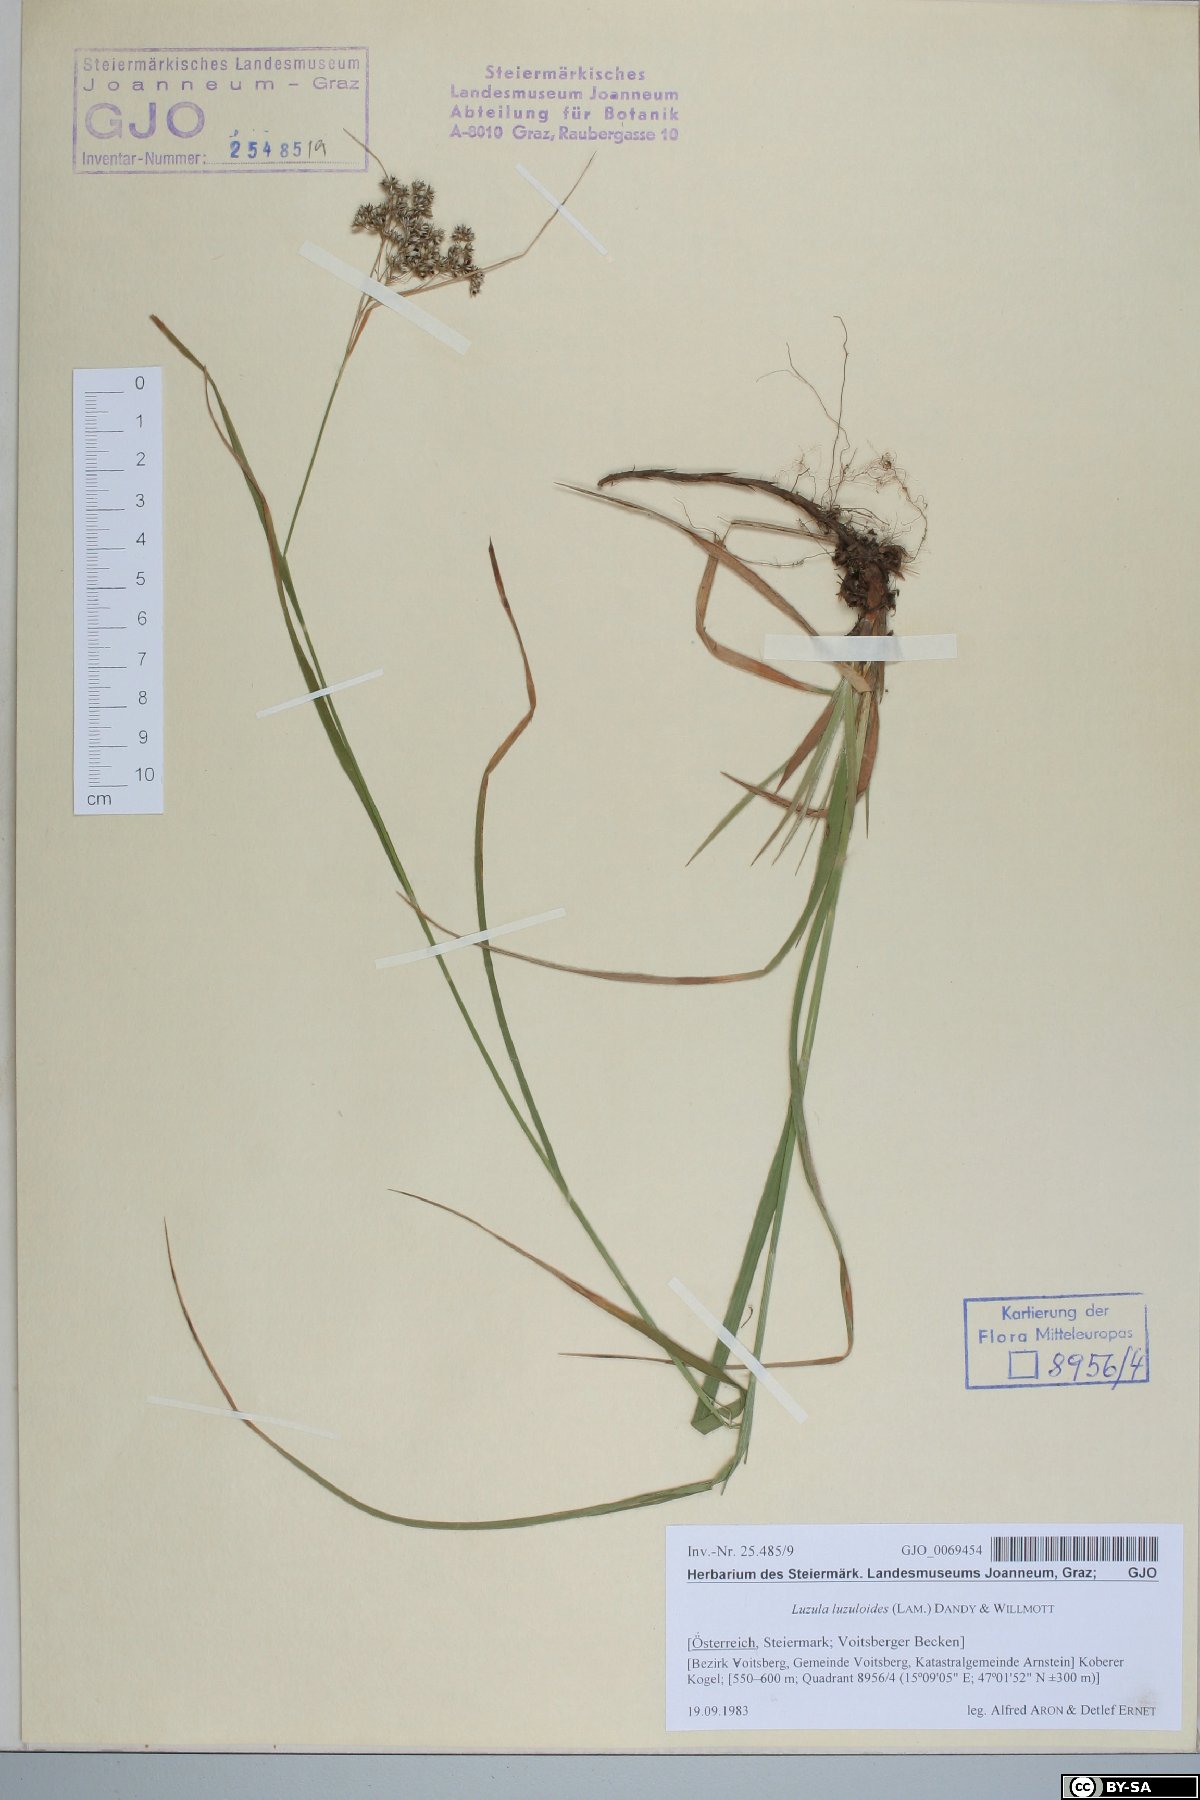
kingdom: Plantae
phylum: Tracheophyta
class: Liliopsida
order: Poales
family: Juncaceae
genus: Luzula
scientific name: Luzula luzuloides
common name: White wood-rush
